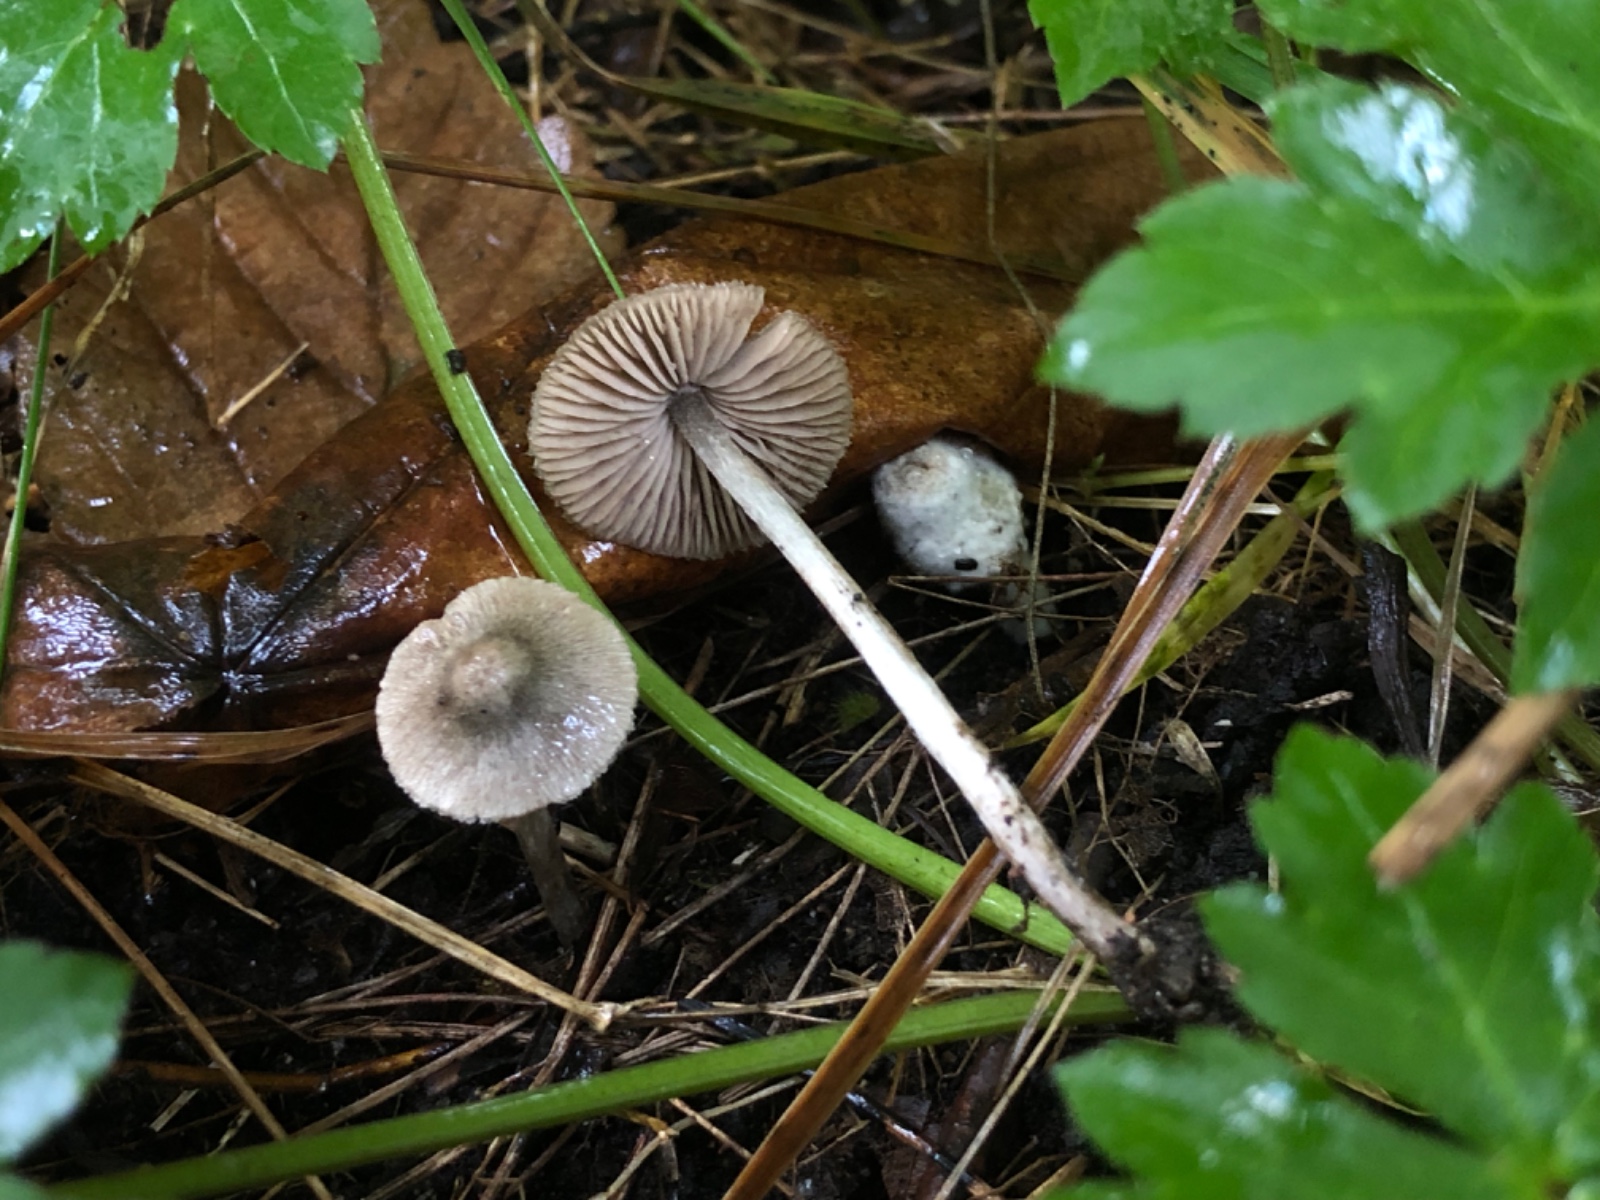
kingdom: Fungi
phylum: Basidiomycota
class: Agaricomycetes
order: Agaricales
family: Entolomataceae
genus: Entoloma
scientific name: Entoloma araneosum
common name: spindelvævs-rødblad
